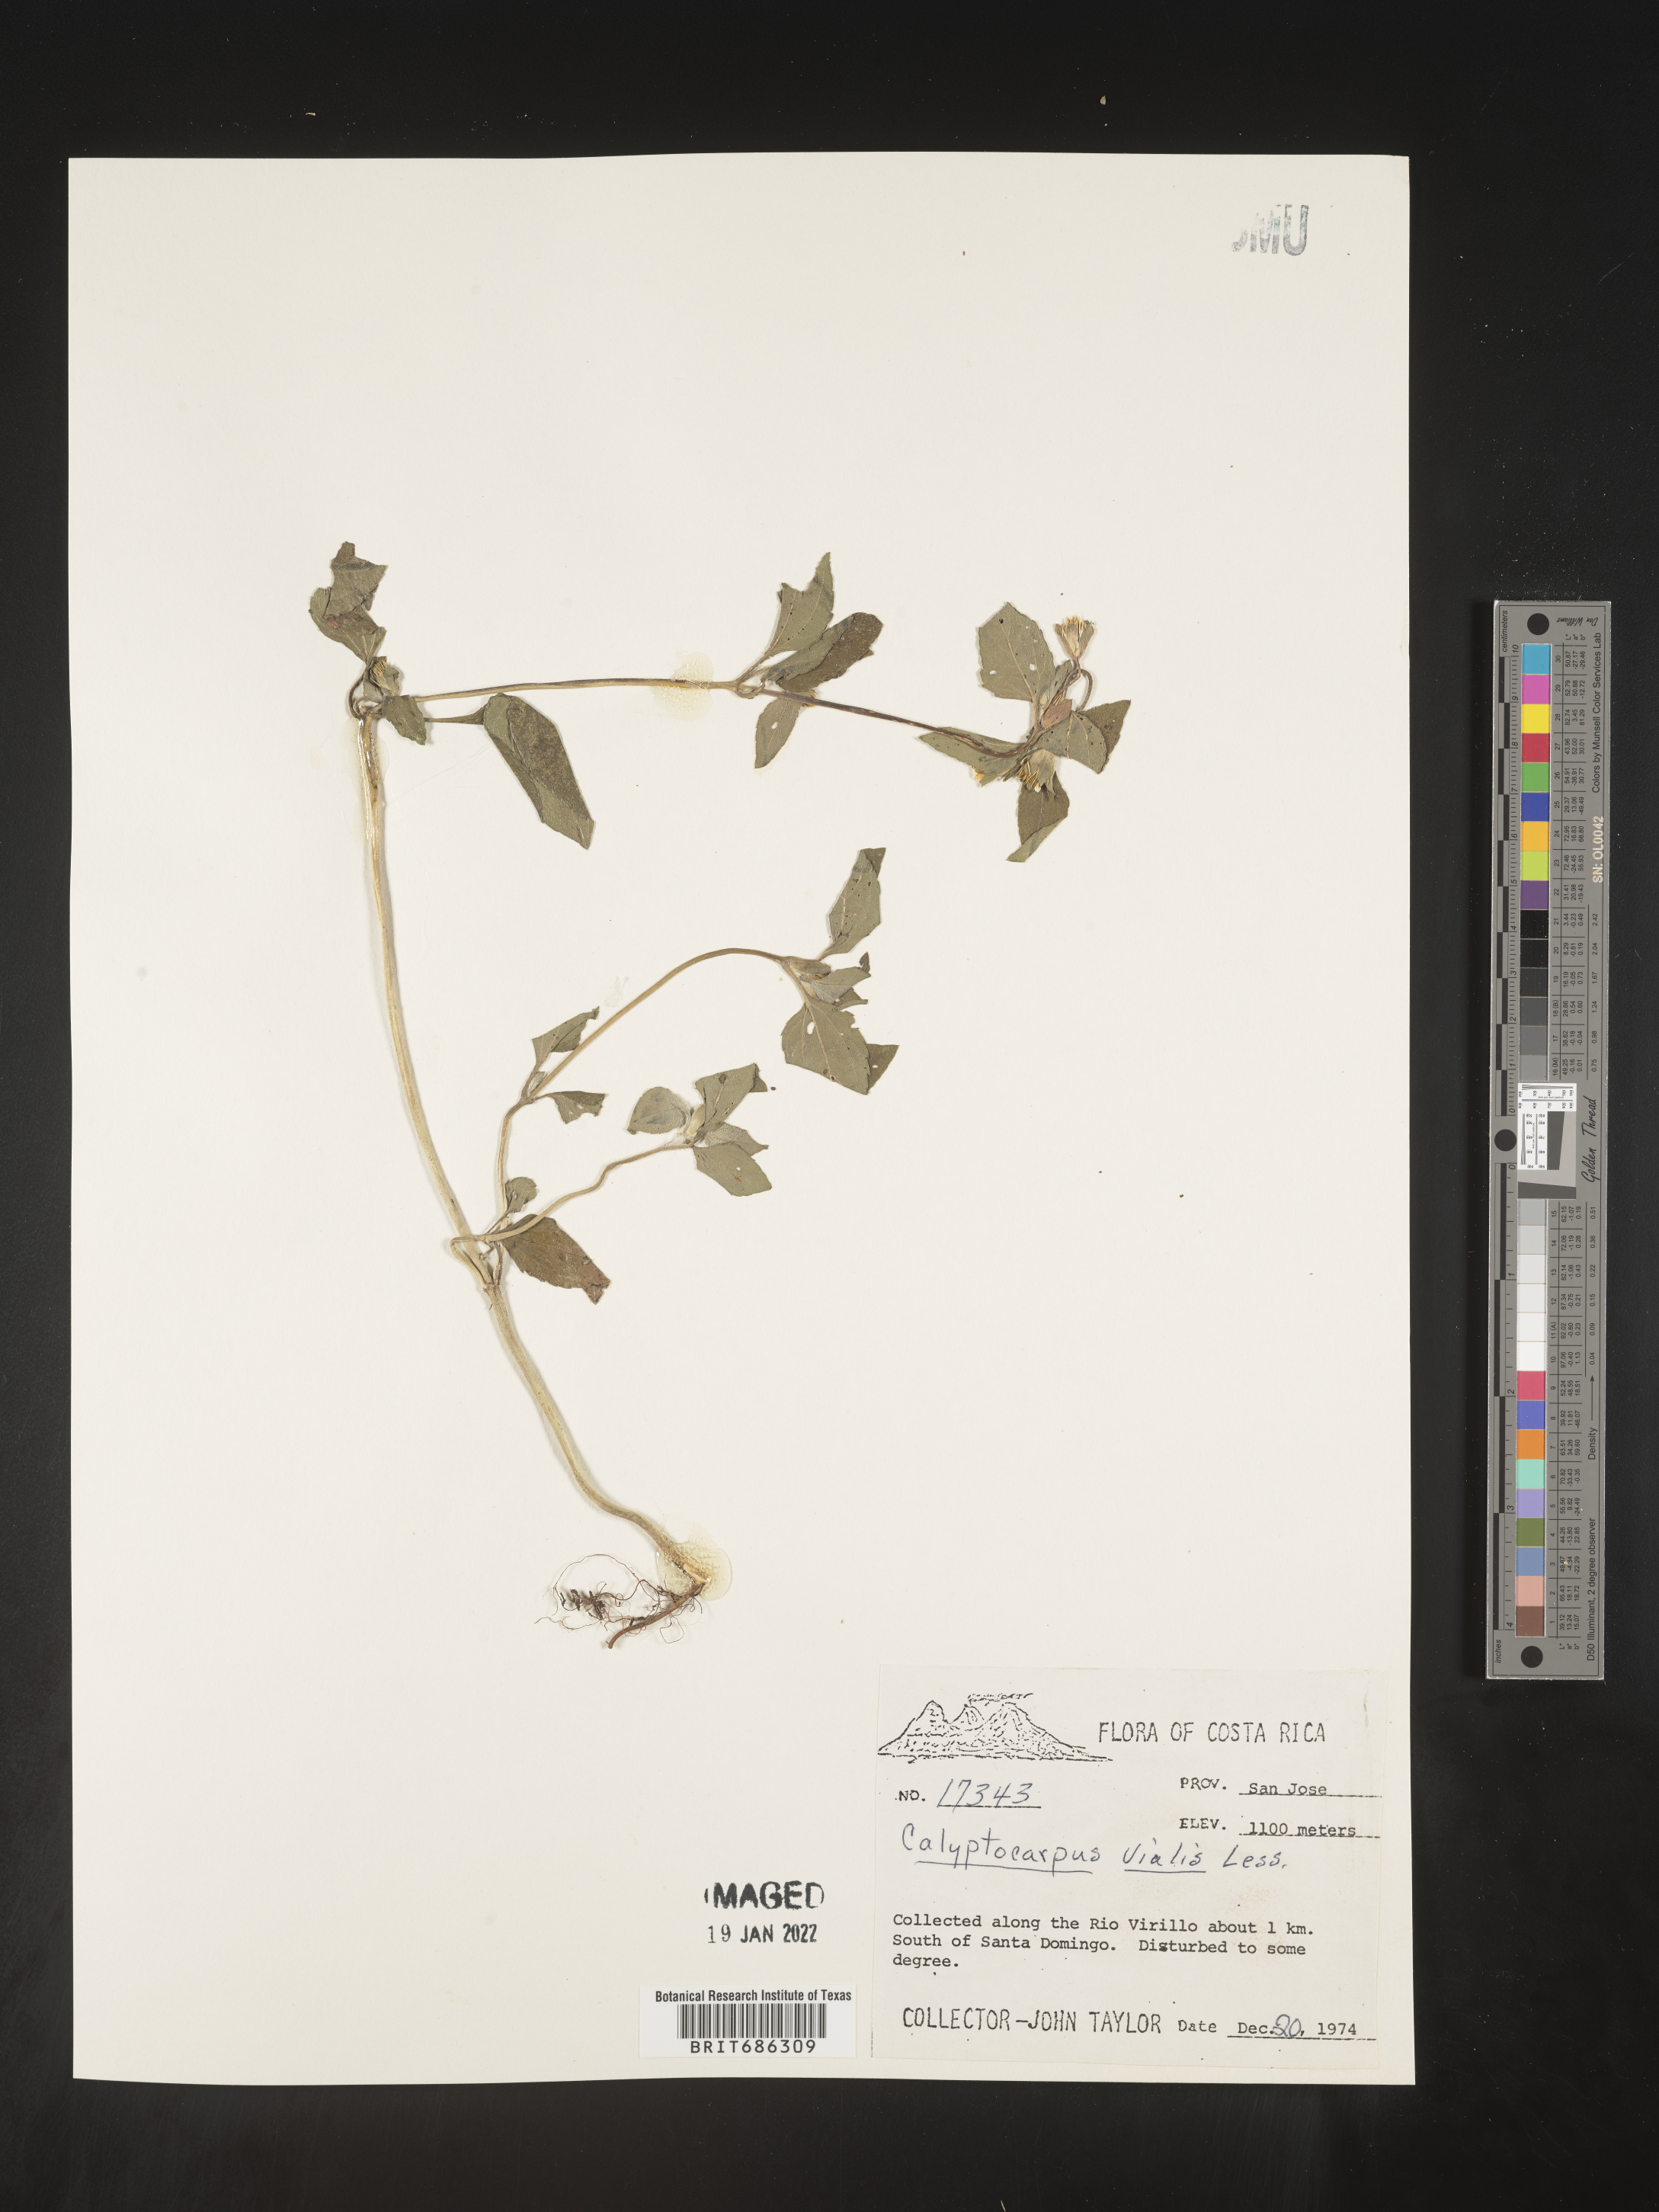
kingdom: Plantae
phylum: Tracheophyta
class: Magnoliopsida
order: Asterales
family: Asteraceae
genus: Calyptocarpus
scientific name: Calyptocarpus
